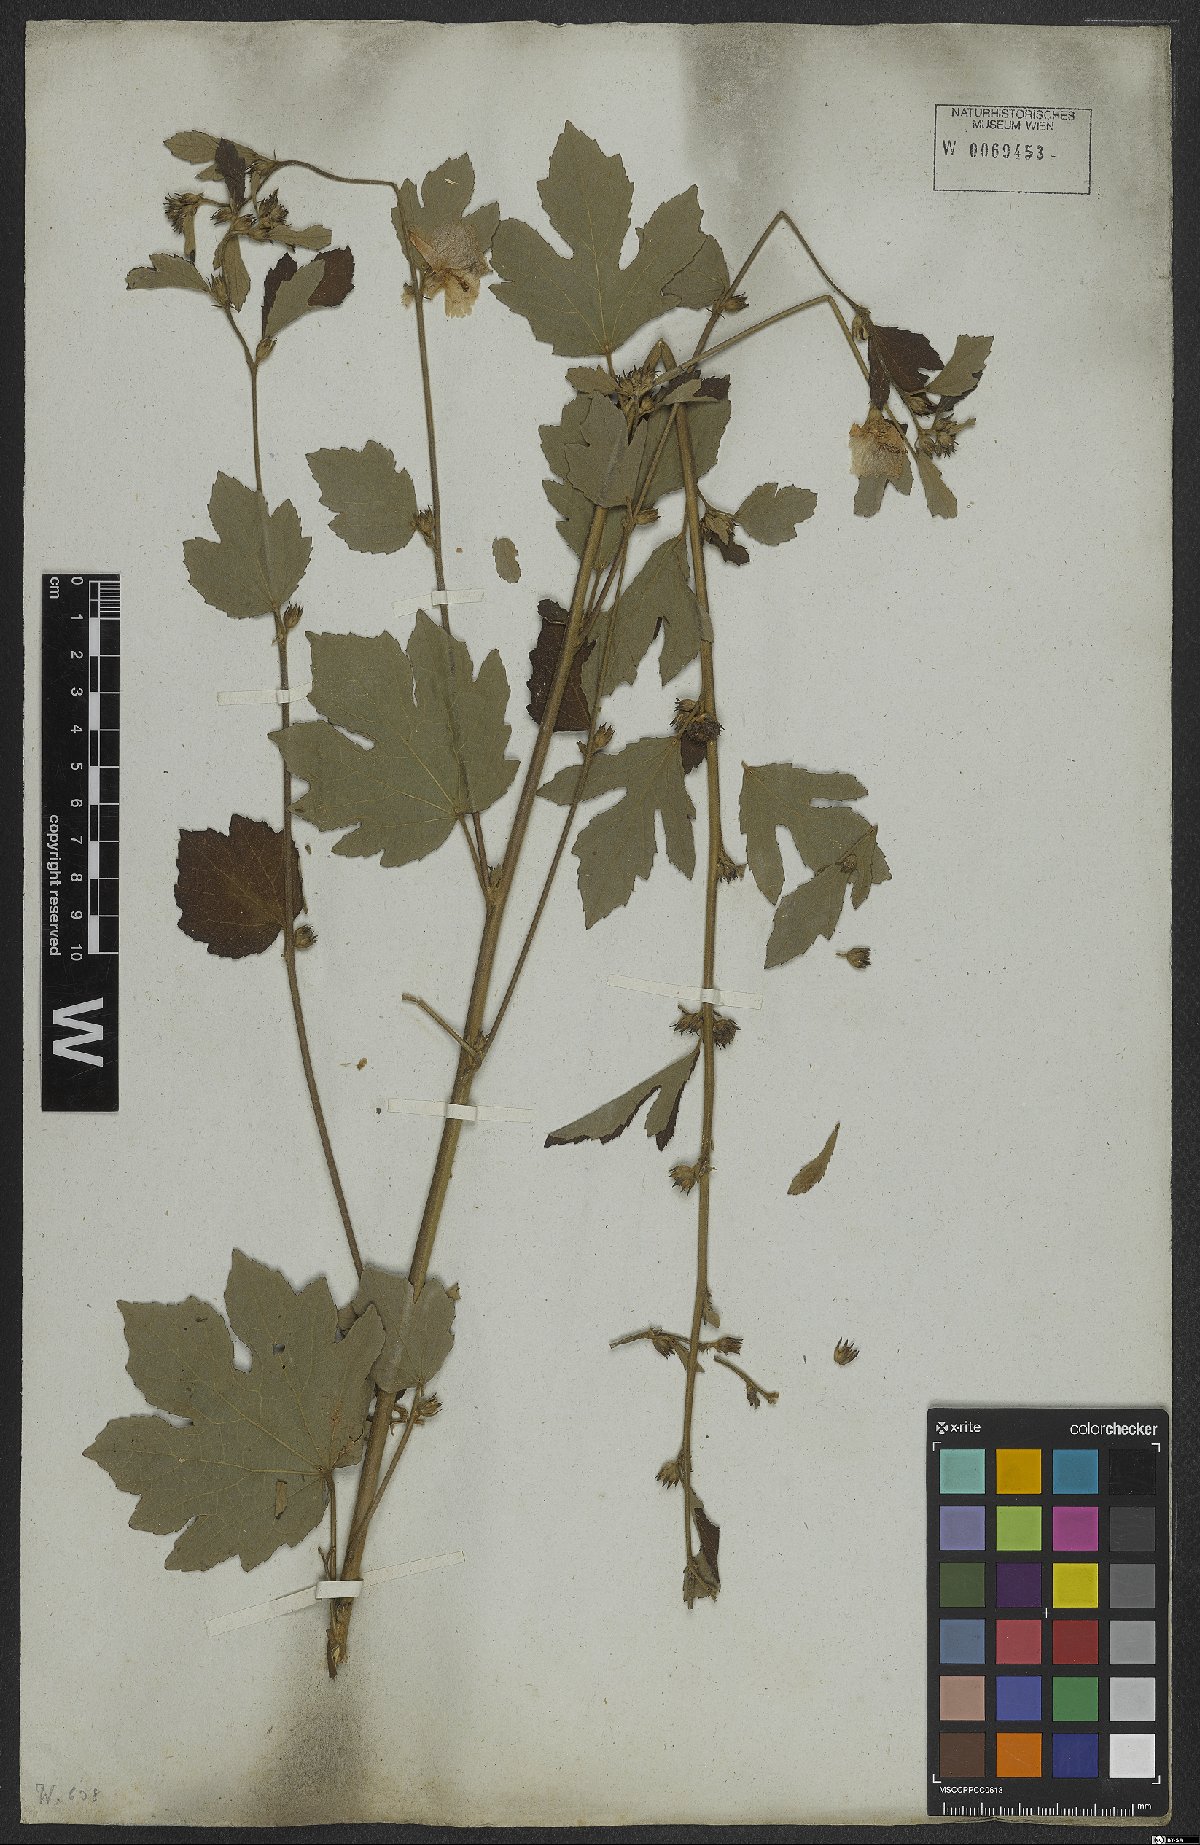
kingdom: Plantae
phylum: Tracheophyta
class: Magnoliopsida
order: Malvales
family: Malvaceae
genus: Urena
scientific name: Urena lobata
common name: Caesarweed
